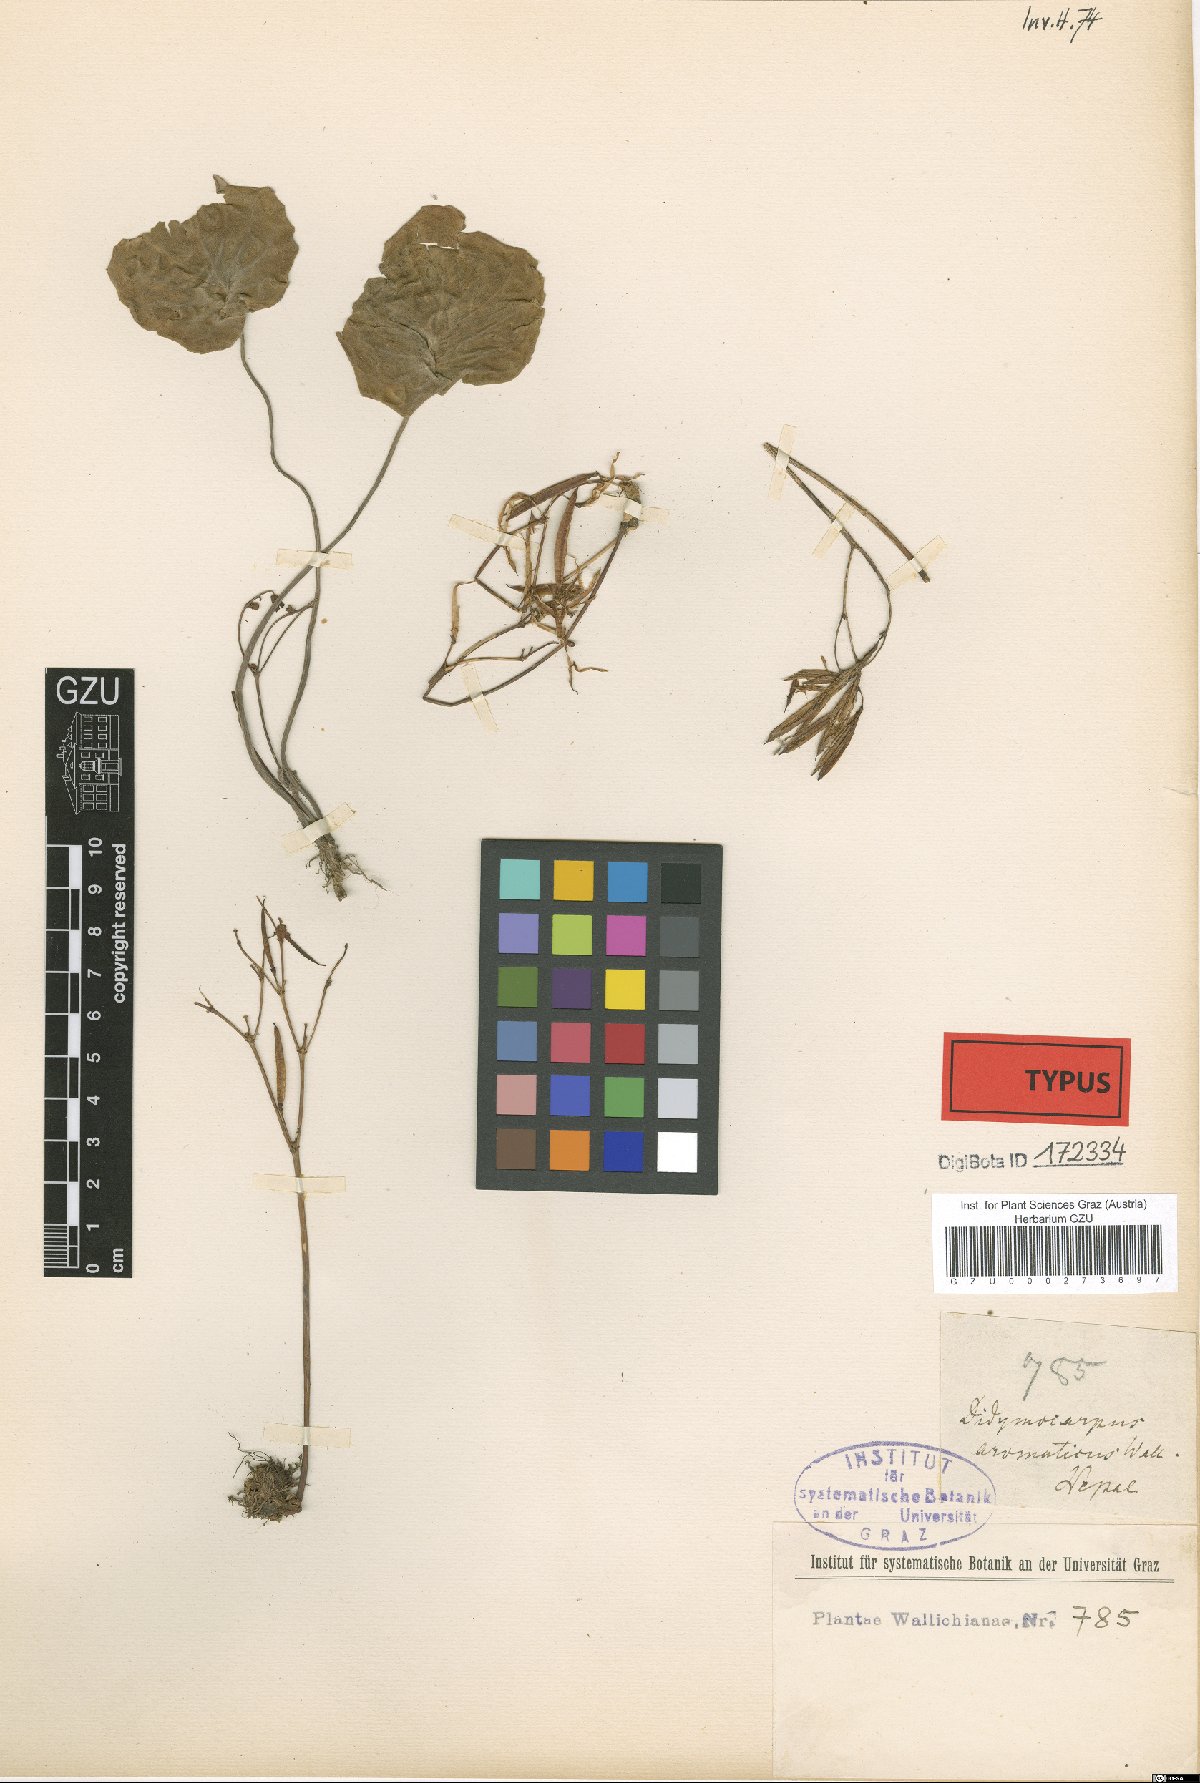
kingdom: Plantae
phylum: Tracheophyta
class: Magnoliopsida
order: Lamiales
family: Gesneriaceae
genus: Didymocarpus
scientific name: Didymocarpus aromaticus
